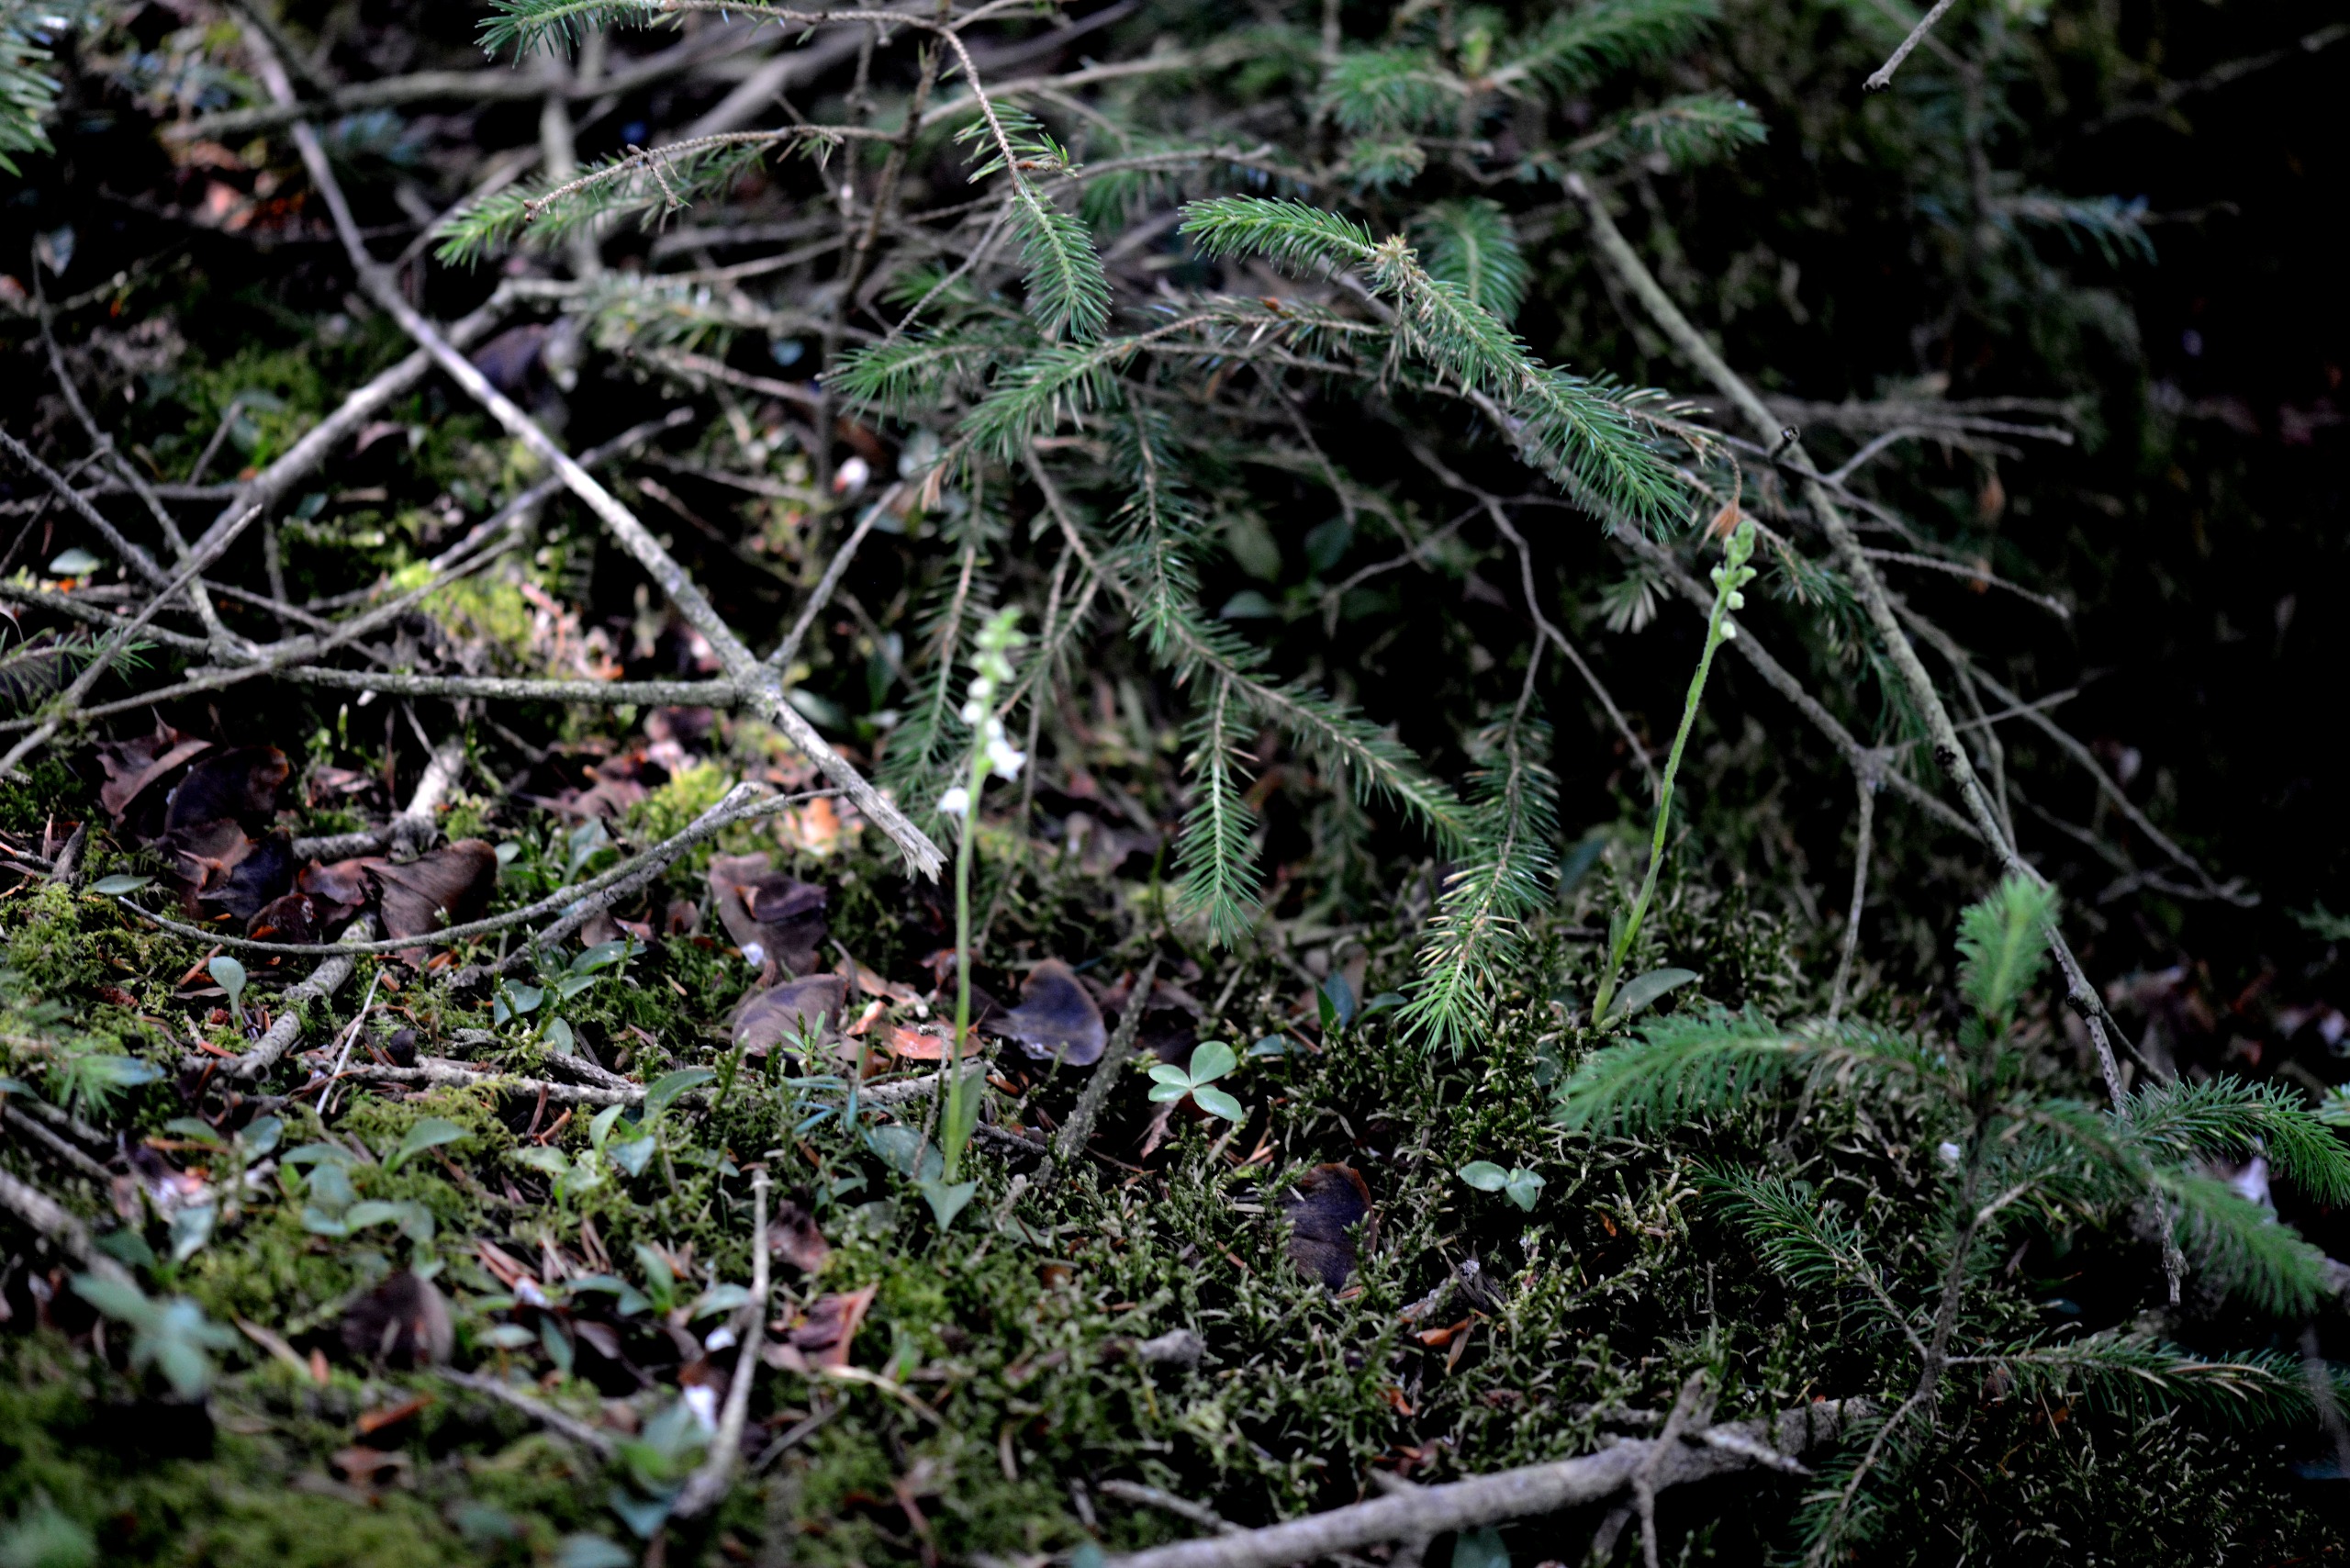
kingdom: Plantae
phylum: Tracheophyta
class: Liliopsida
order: Asparagales
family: Orchidaceae
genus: Goodyera
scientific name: Goodyera repens
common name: Knærod
